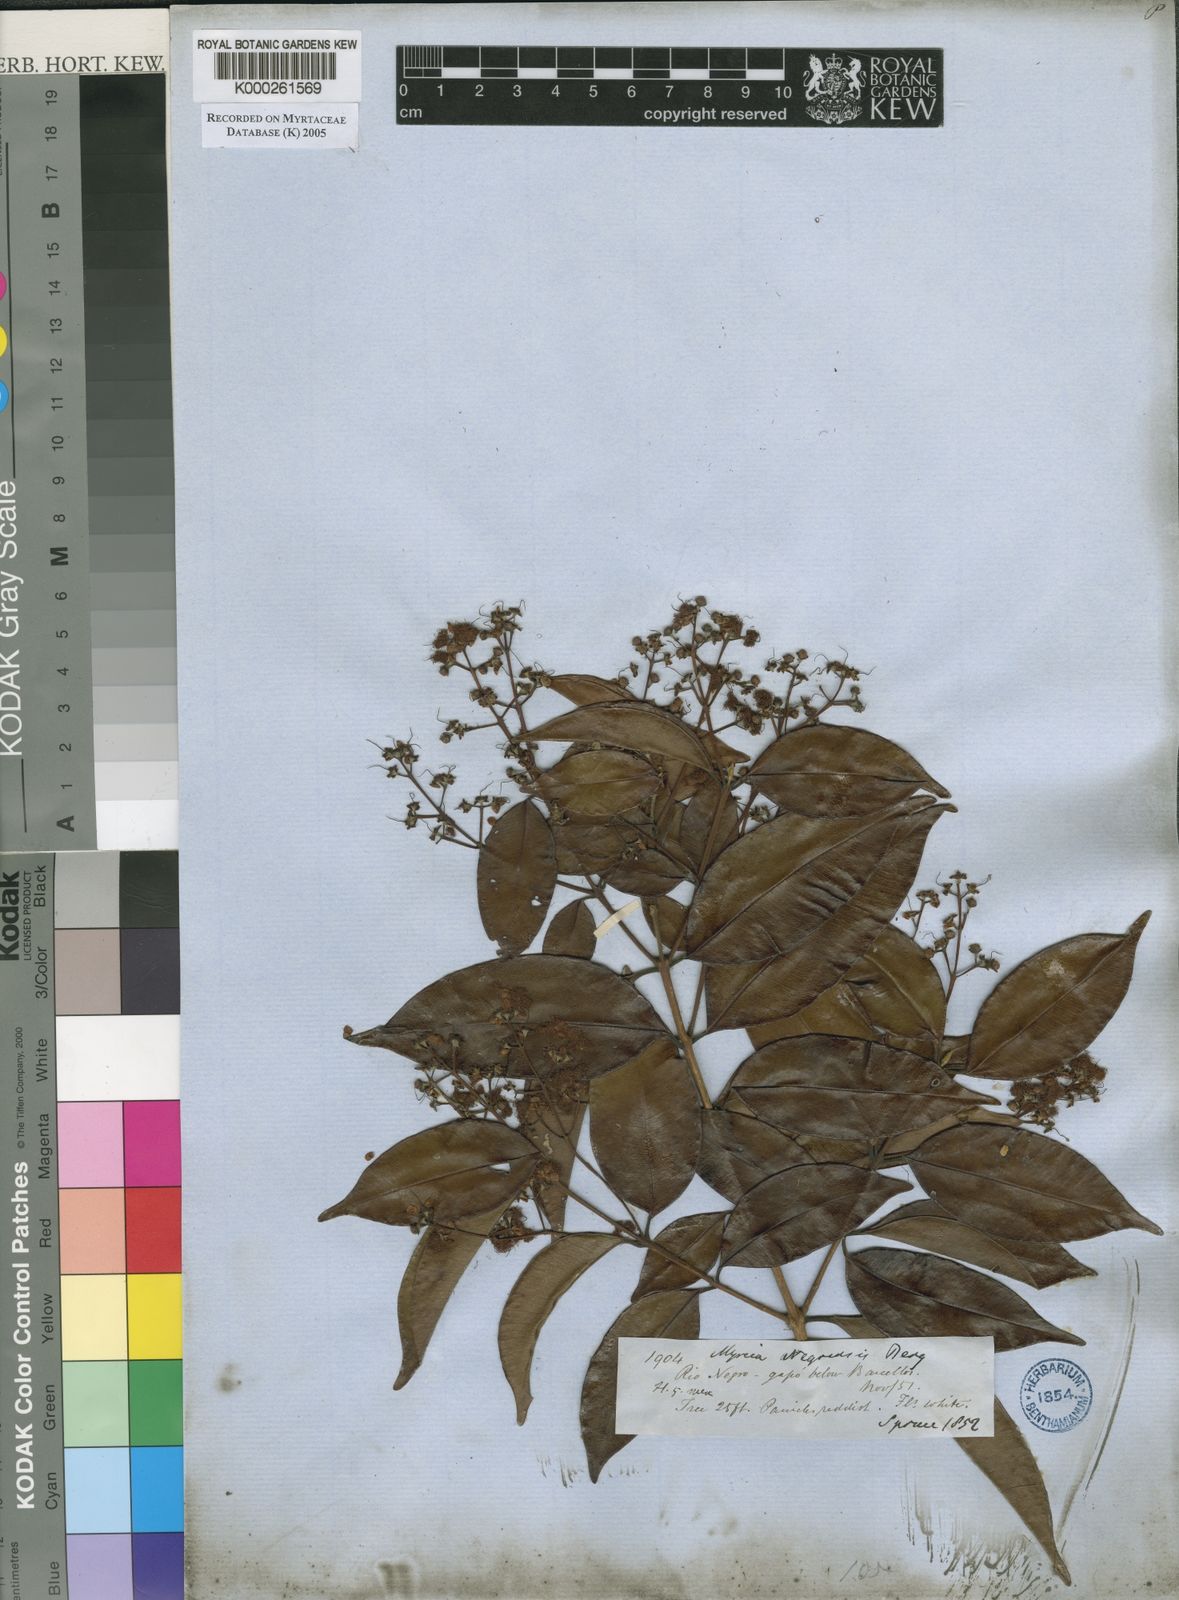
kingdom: Plantae
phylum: Tracheophyta
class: Magnoliopsida
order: Myrtales
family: Myrtaceae
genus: Myrcia
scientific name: Myrcia splendens
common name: Surinam cherry
